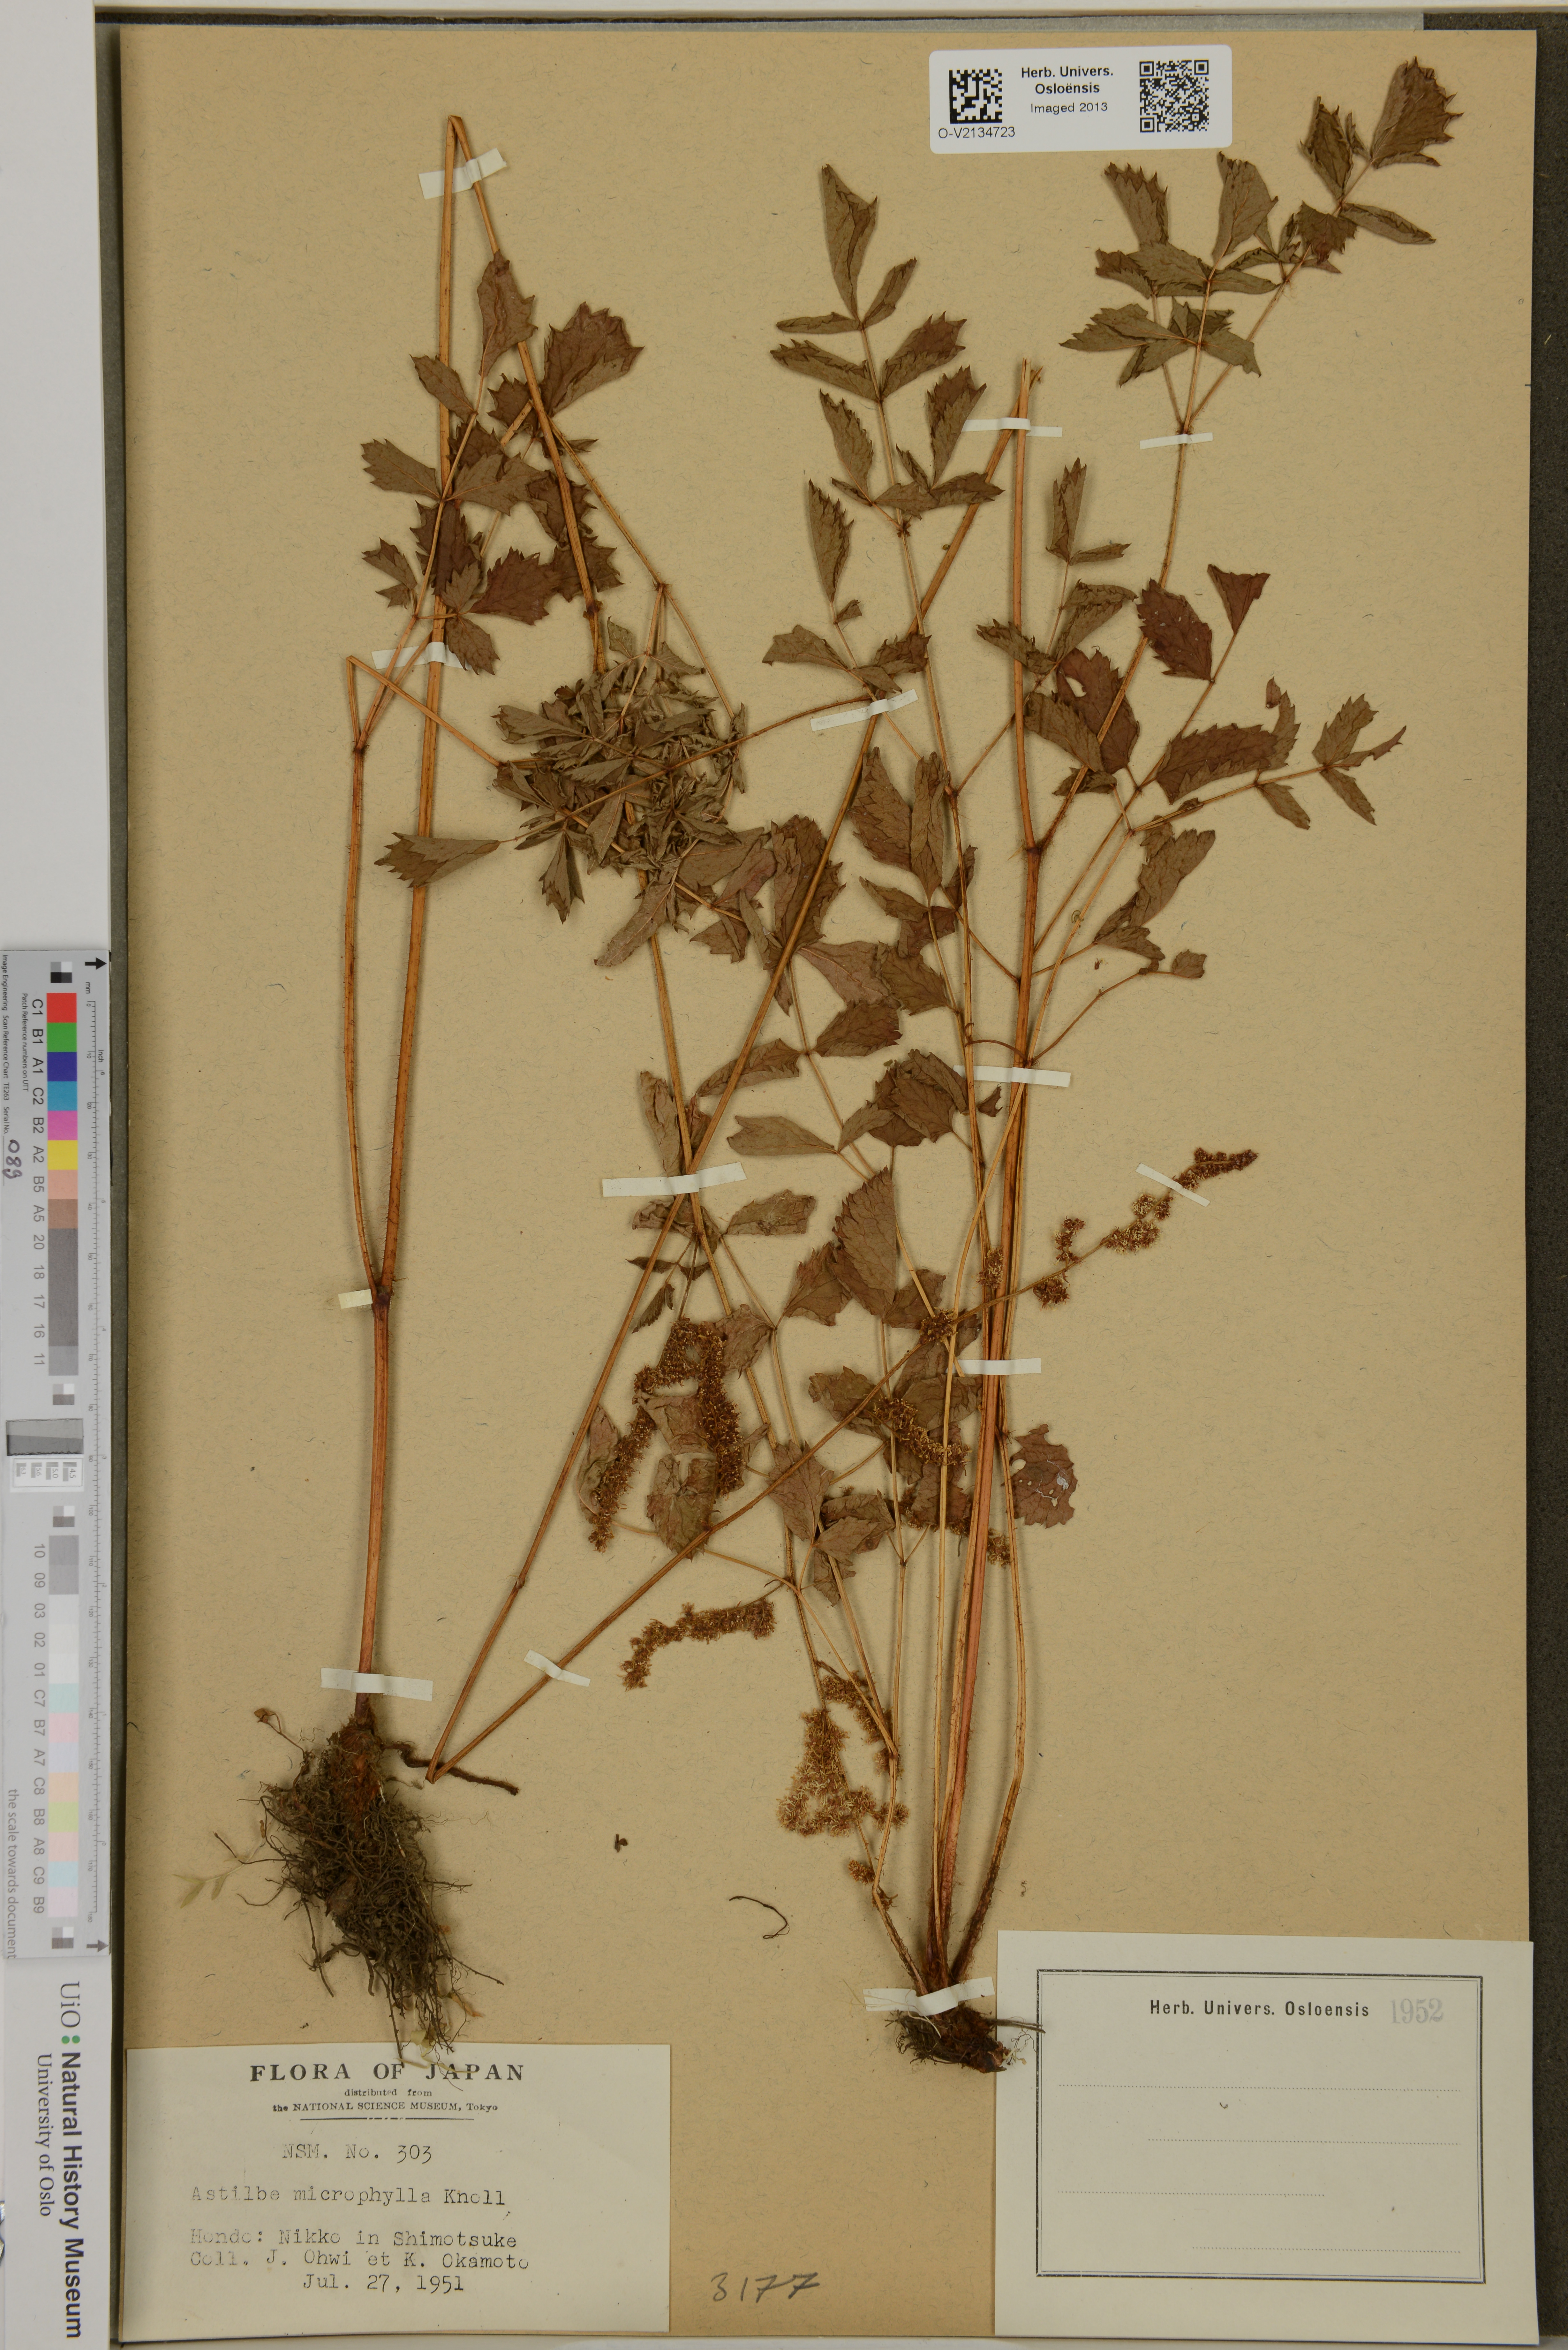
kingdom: Plantae
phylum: Tracheophyta
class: Magnoliopsida
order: Saxifragales
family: Saxifragaceae
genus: Astilbe
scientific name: Astilbe microphylla
